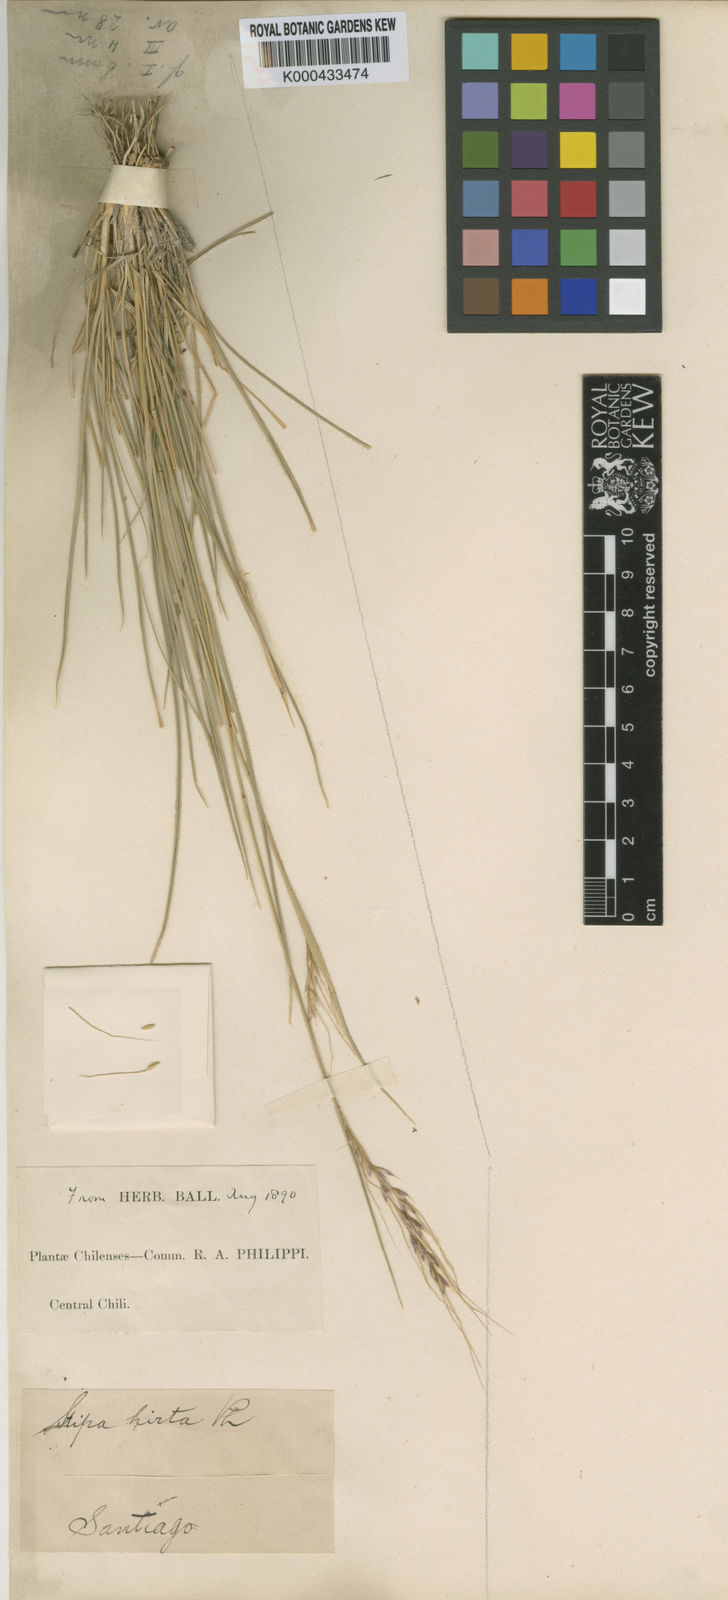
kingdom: Plantae
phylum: Tracheophyta
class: Liliopsida
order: Poales
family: Poaceae
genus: Nassella
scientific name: Nassella duriuscula
